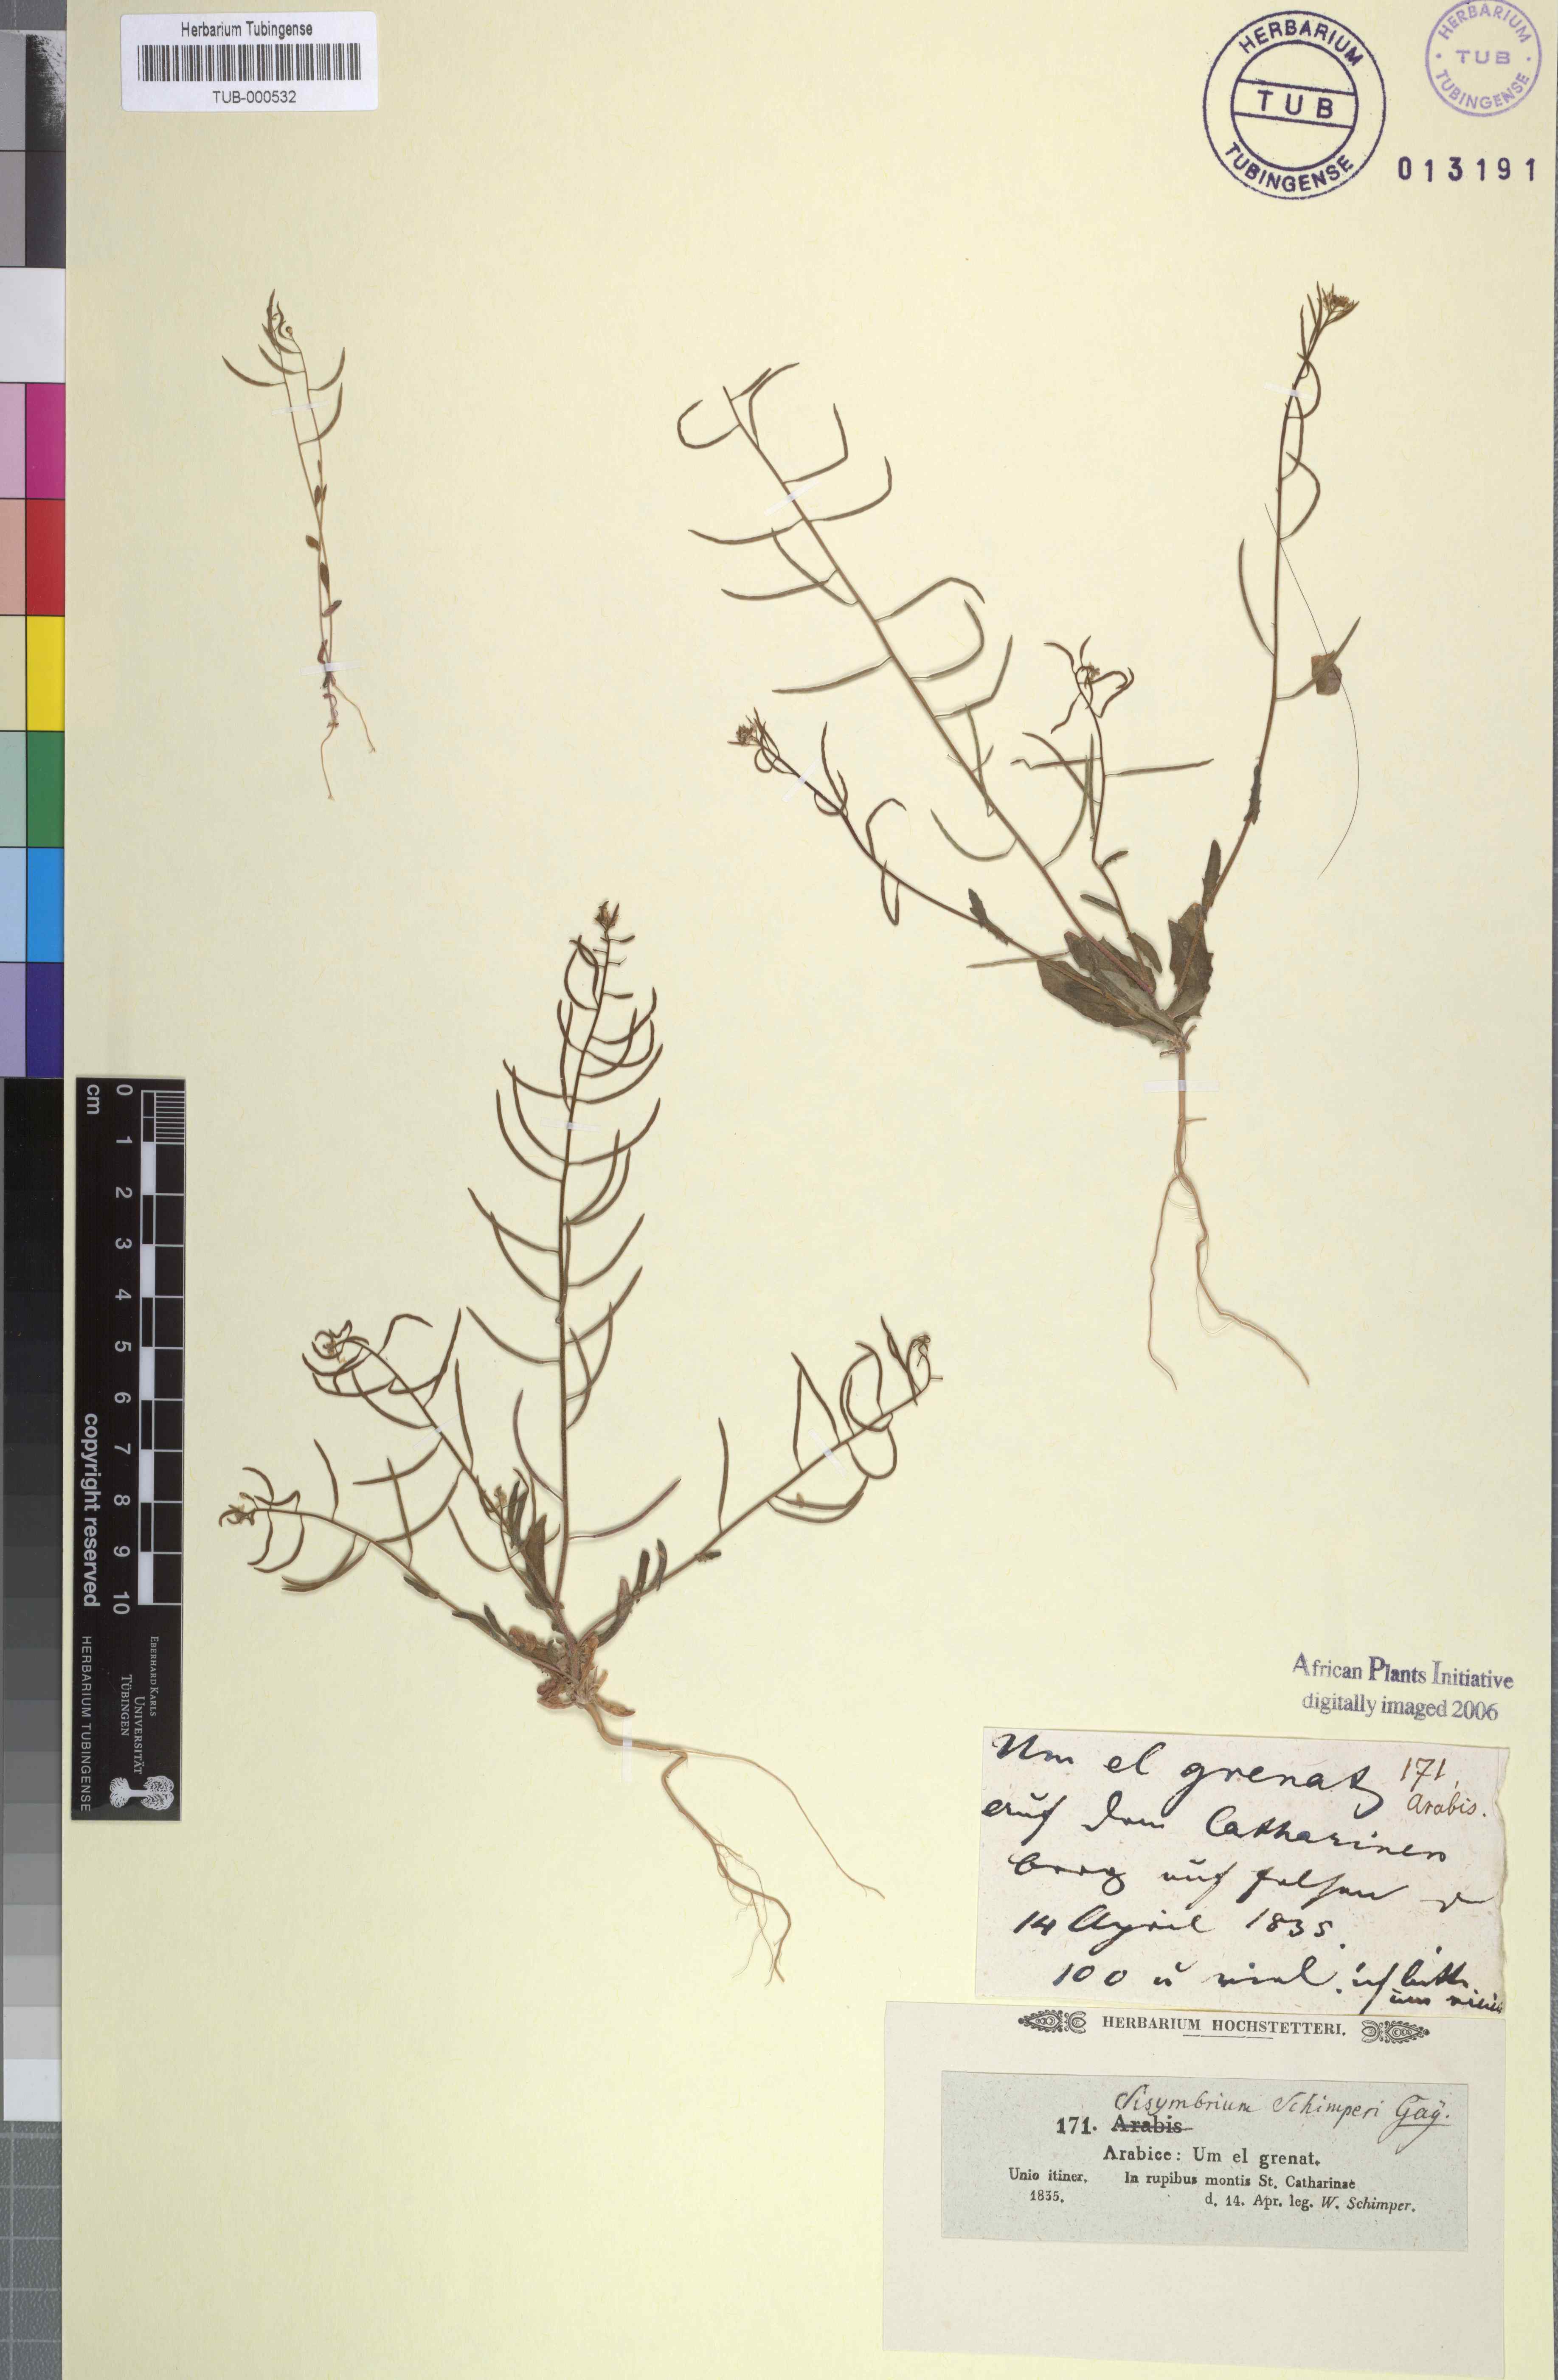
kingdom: Plantae
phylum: Tracheophyta
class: Magnoliopsida
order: Brassicales
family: Brassicaceae
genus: Sisymbrium
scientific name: Sisymbrium pumilum
